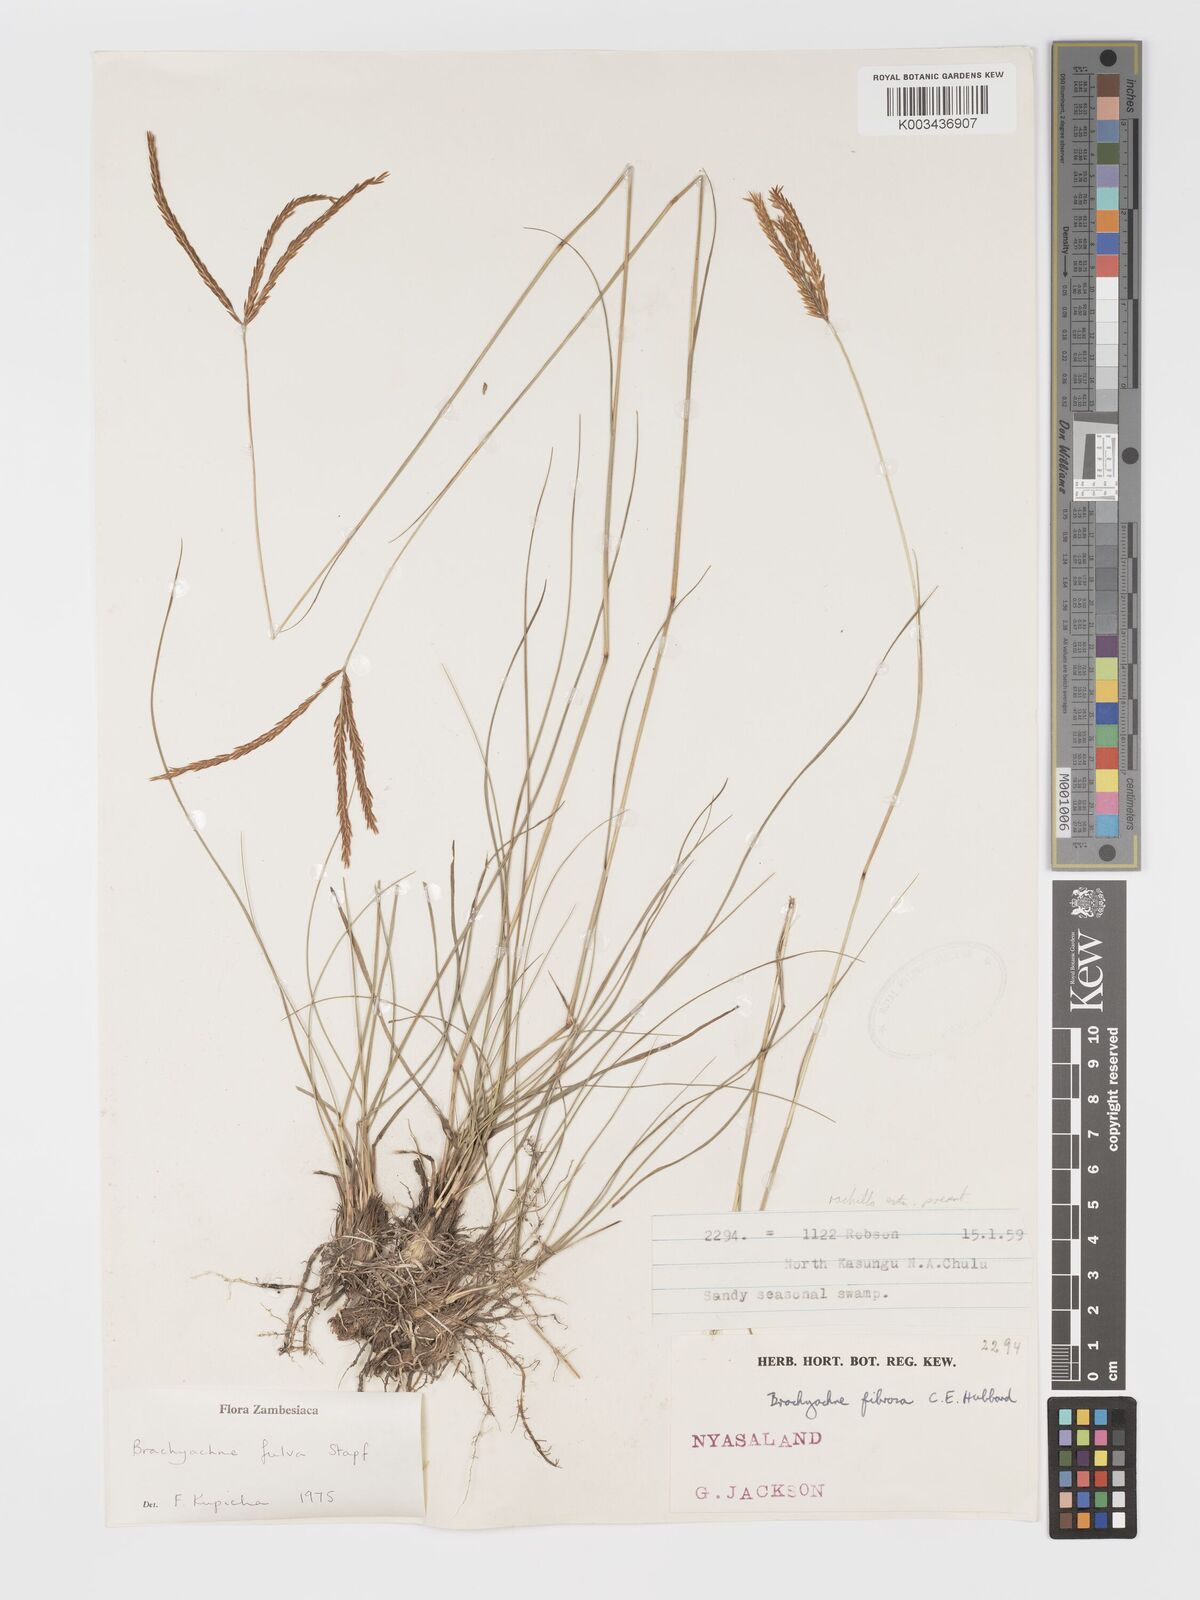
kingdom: Plantae
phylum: Tracheophyta
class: Liliopsida
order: Poales
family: Poaceae
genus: Micrachne
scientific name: Micrachne fulva
